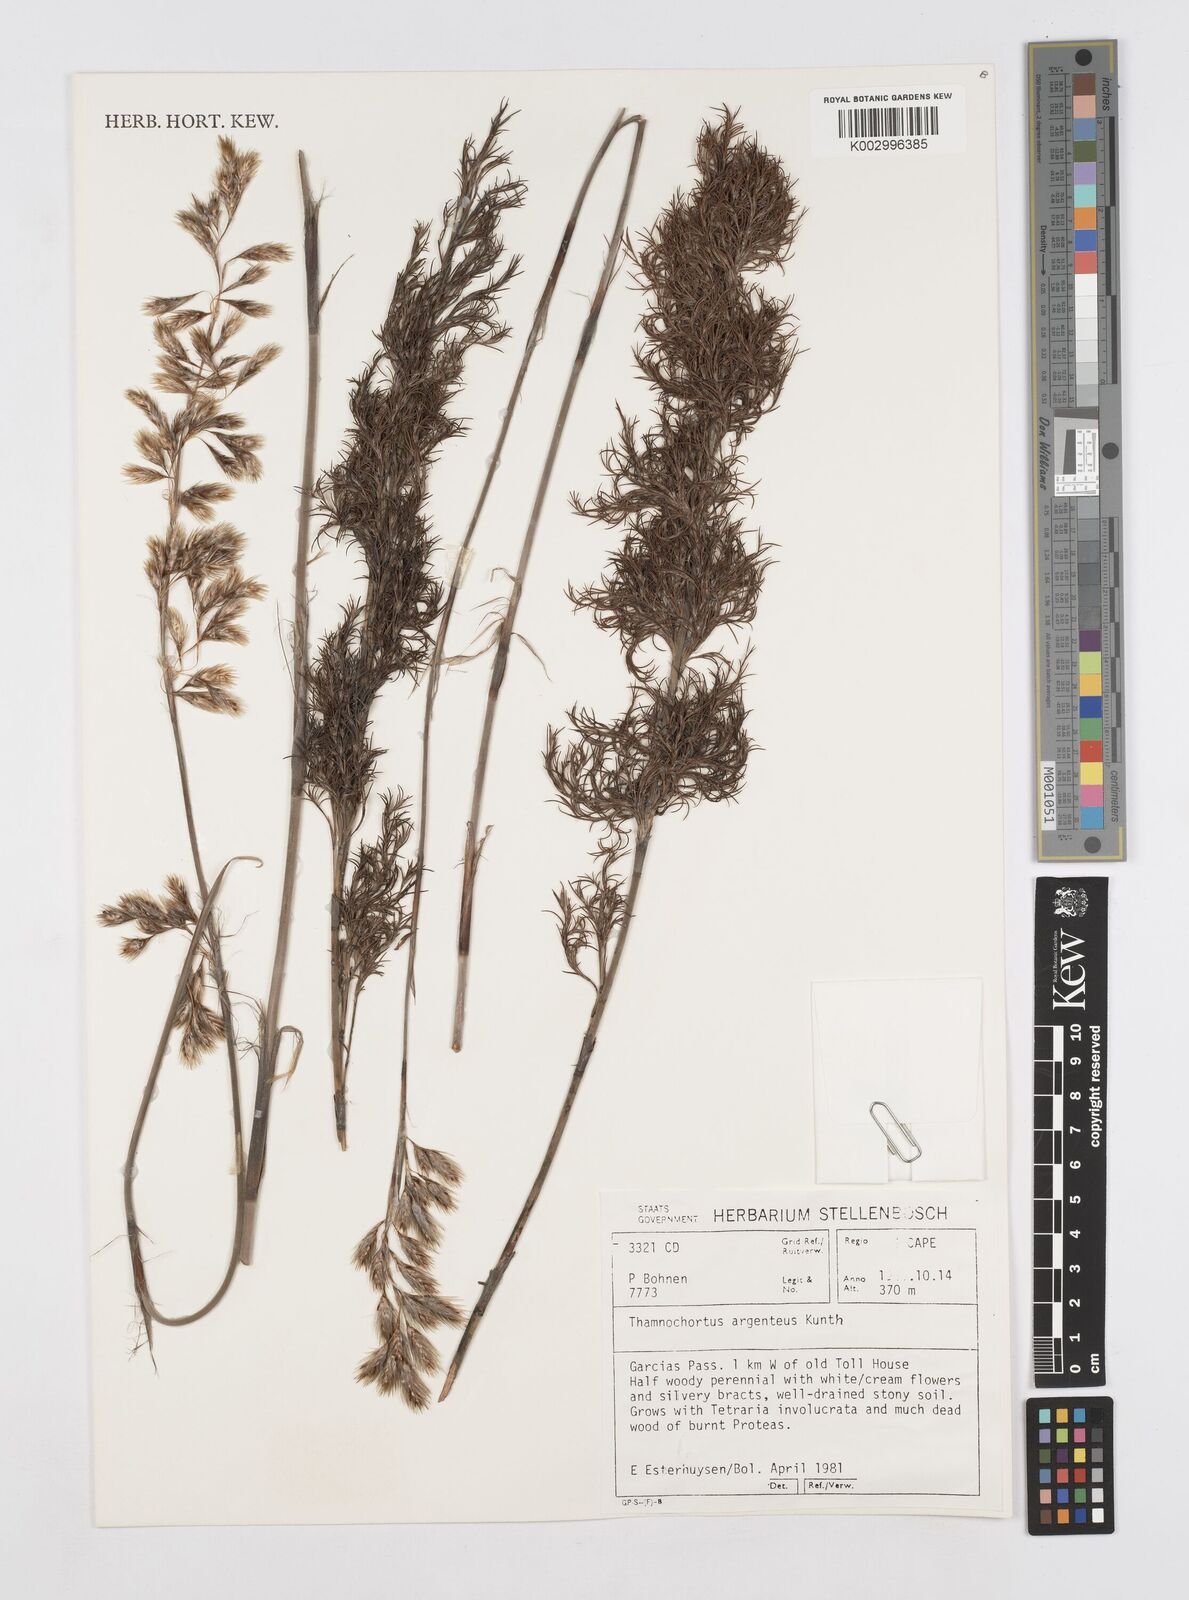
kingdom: Plantae
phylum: Tracheophyta
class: Liliopsida
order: Poales
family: Restionaceae
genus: Hypodiscus
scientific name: Hypodiscus argenteus
